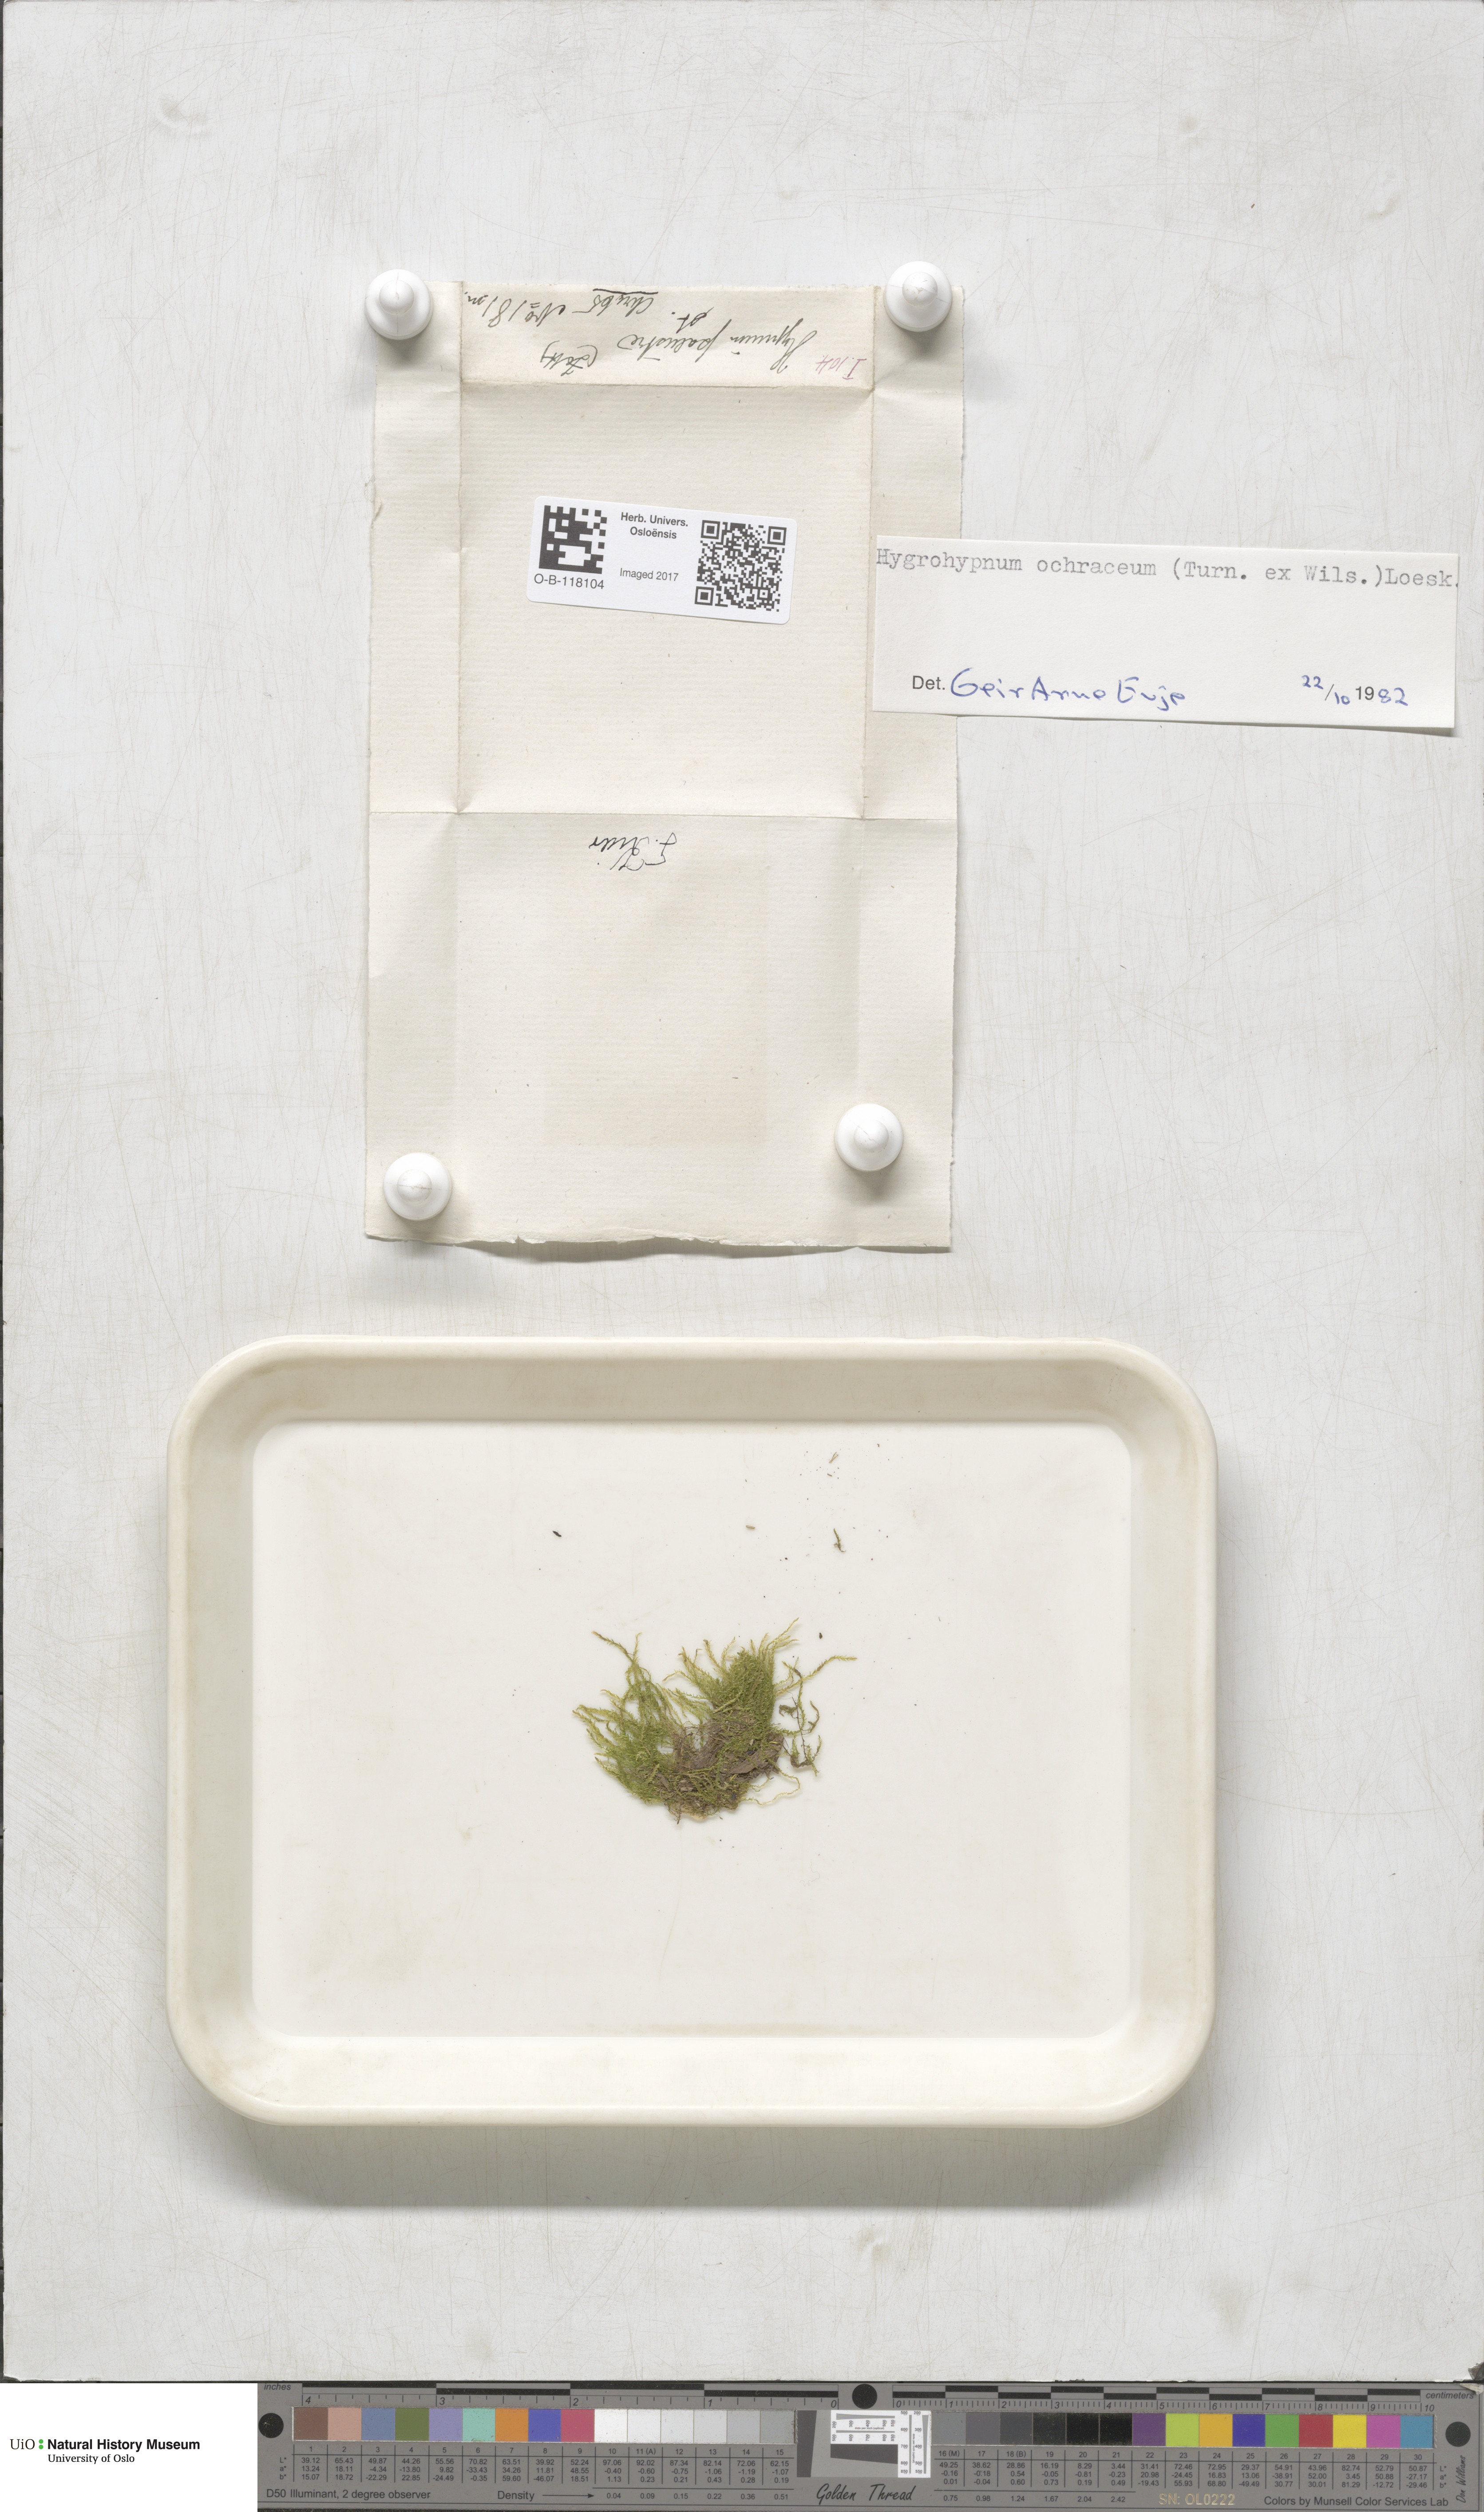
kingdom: Plantae
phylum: Bryophyta
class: Bryopsida
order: Hypnales
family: Scorpidiaceae
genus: Hygrohypnella
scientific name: Hygrohypnella ochracea
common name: Hygrohypnum moss
